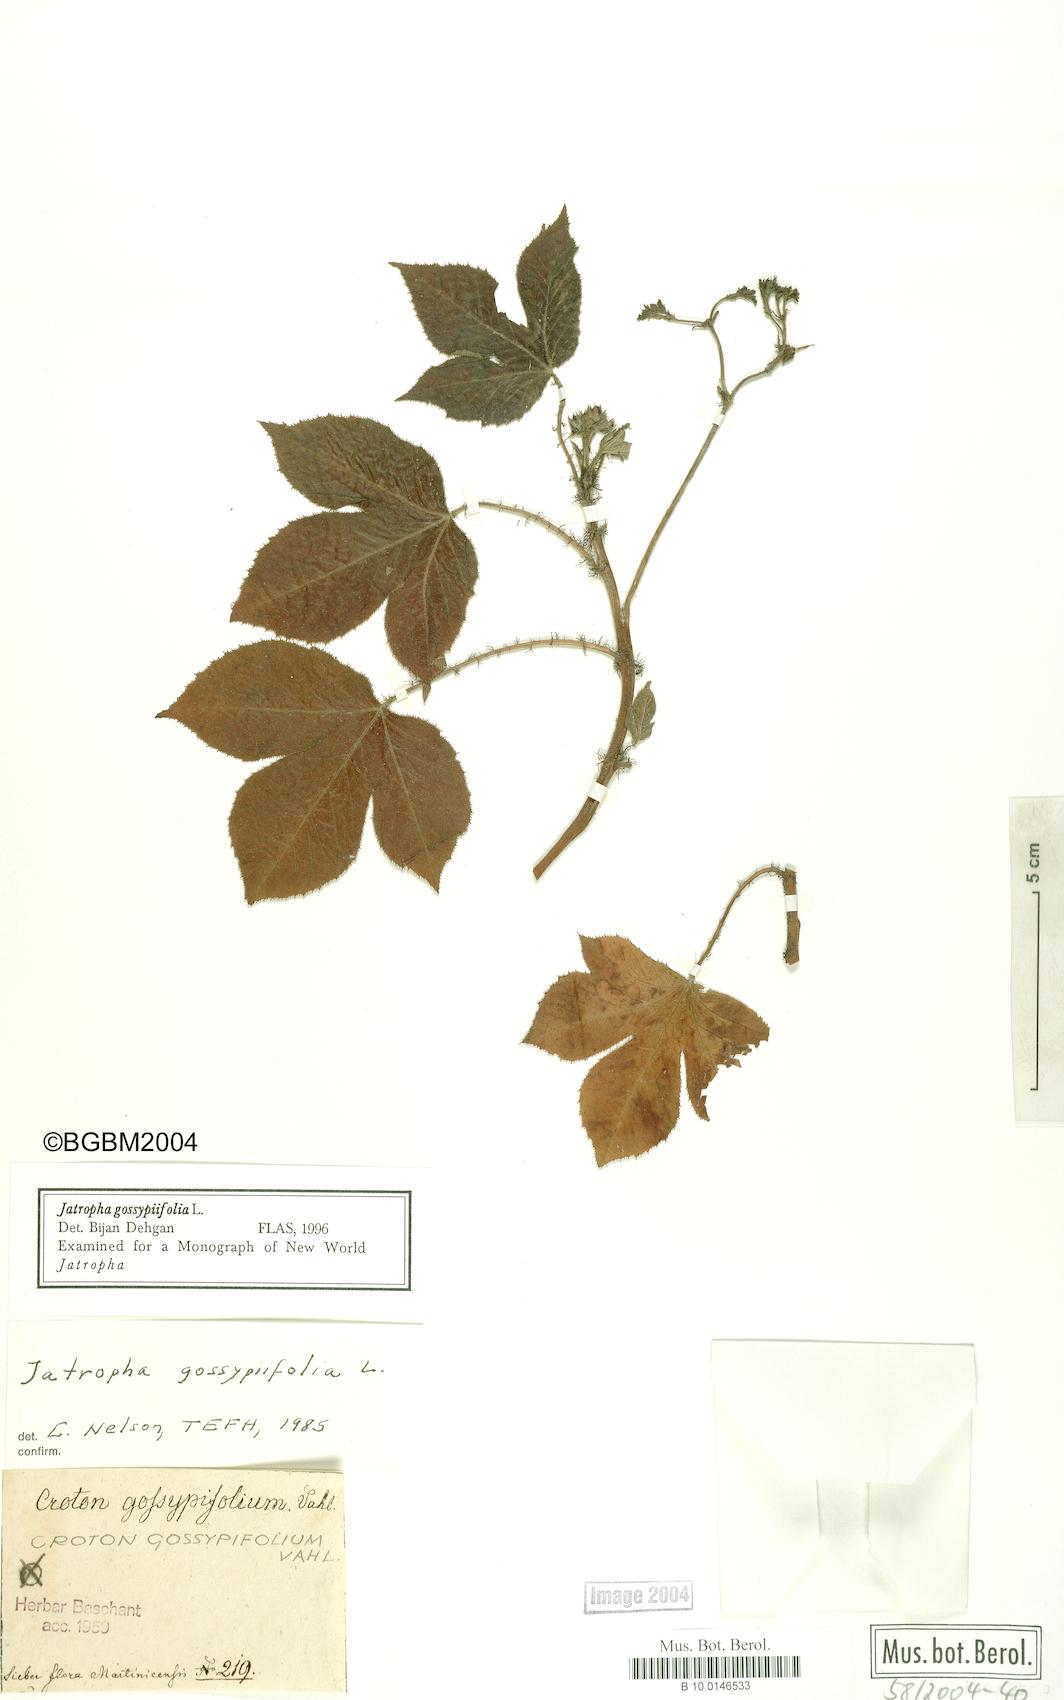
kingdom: Plantae
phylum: Tracheophyta
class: Magnoliopsida
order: Malpighiales
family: Euphorbiaceae
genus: Jatropha
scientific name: Jatropha gossypiifolia
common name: Bellyache bush
